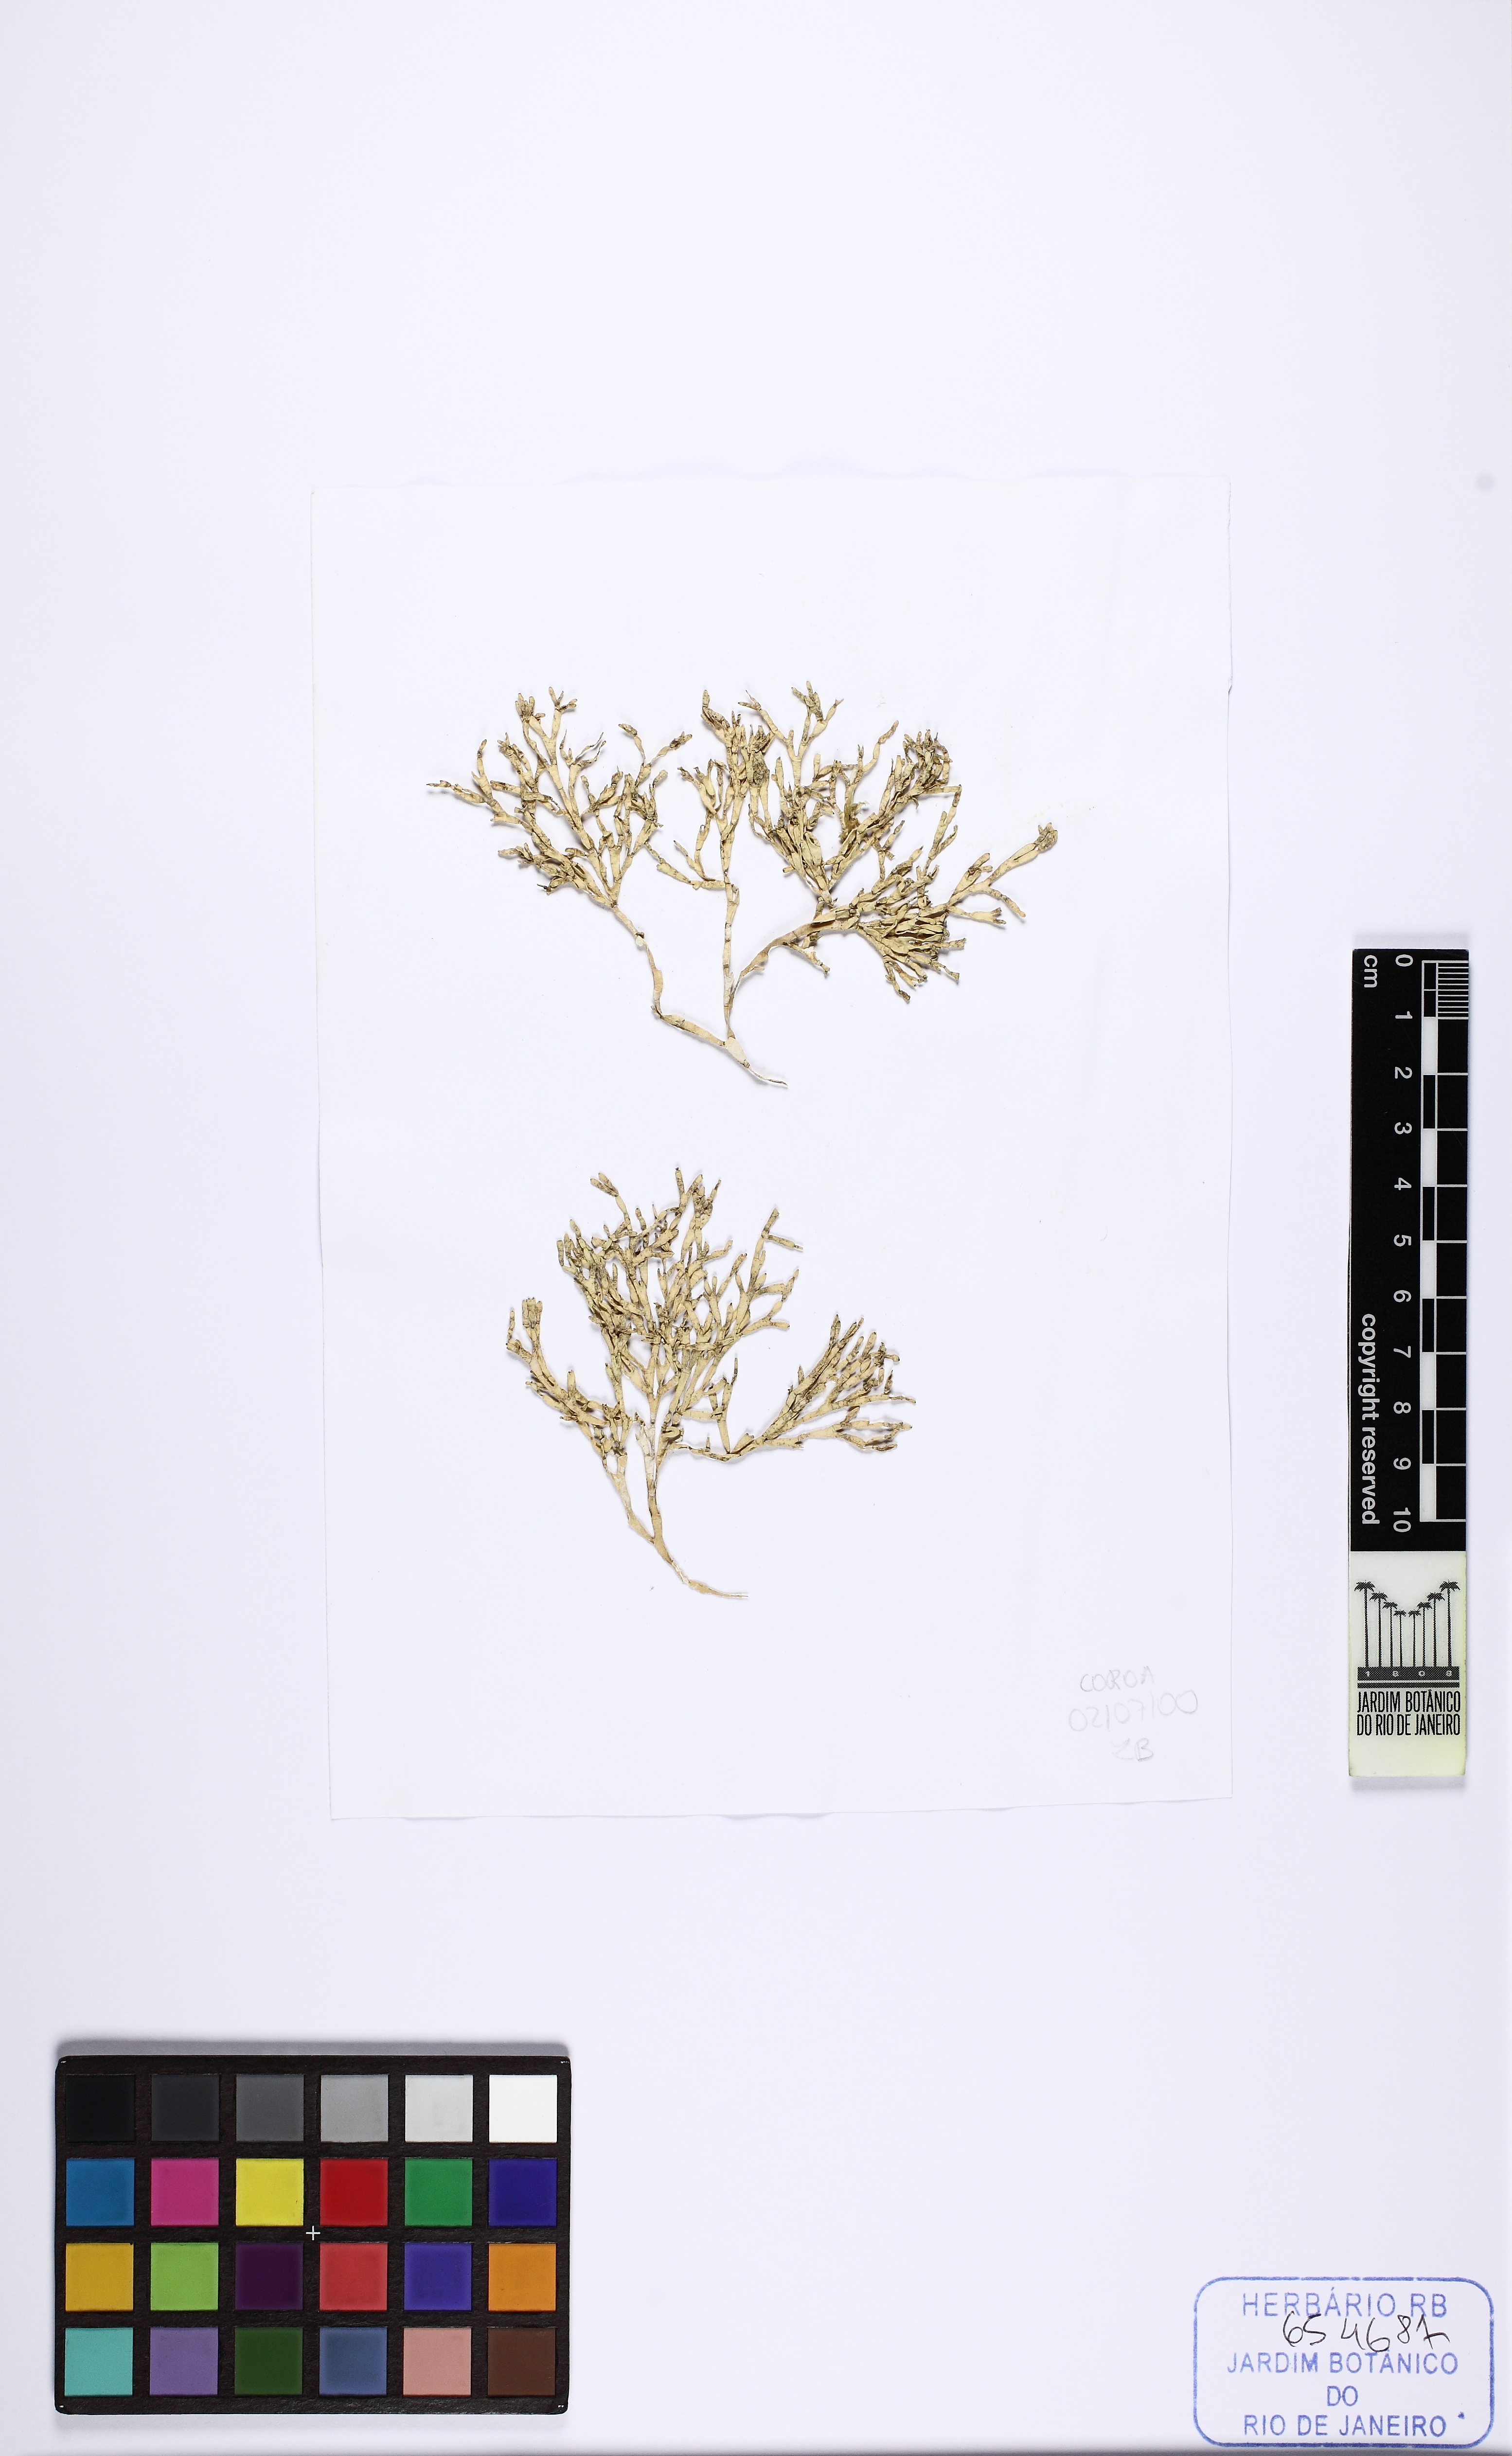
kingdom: Plantae
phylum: Rhodophyta
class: Florideophyceae
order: Nemaliales
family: Galaxauraceae
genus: Dichotomaria
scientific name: Dichotomaria marginata
